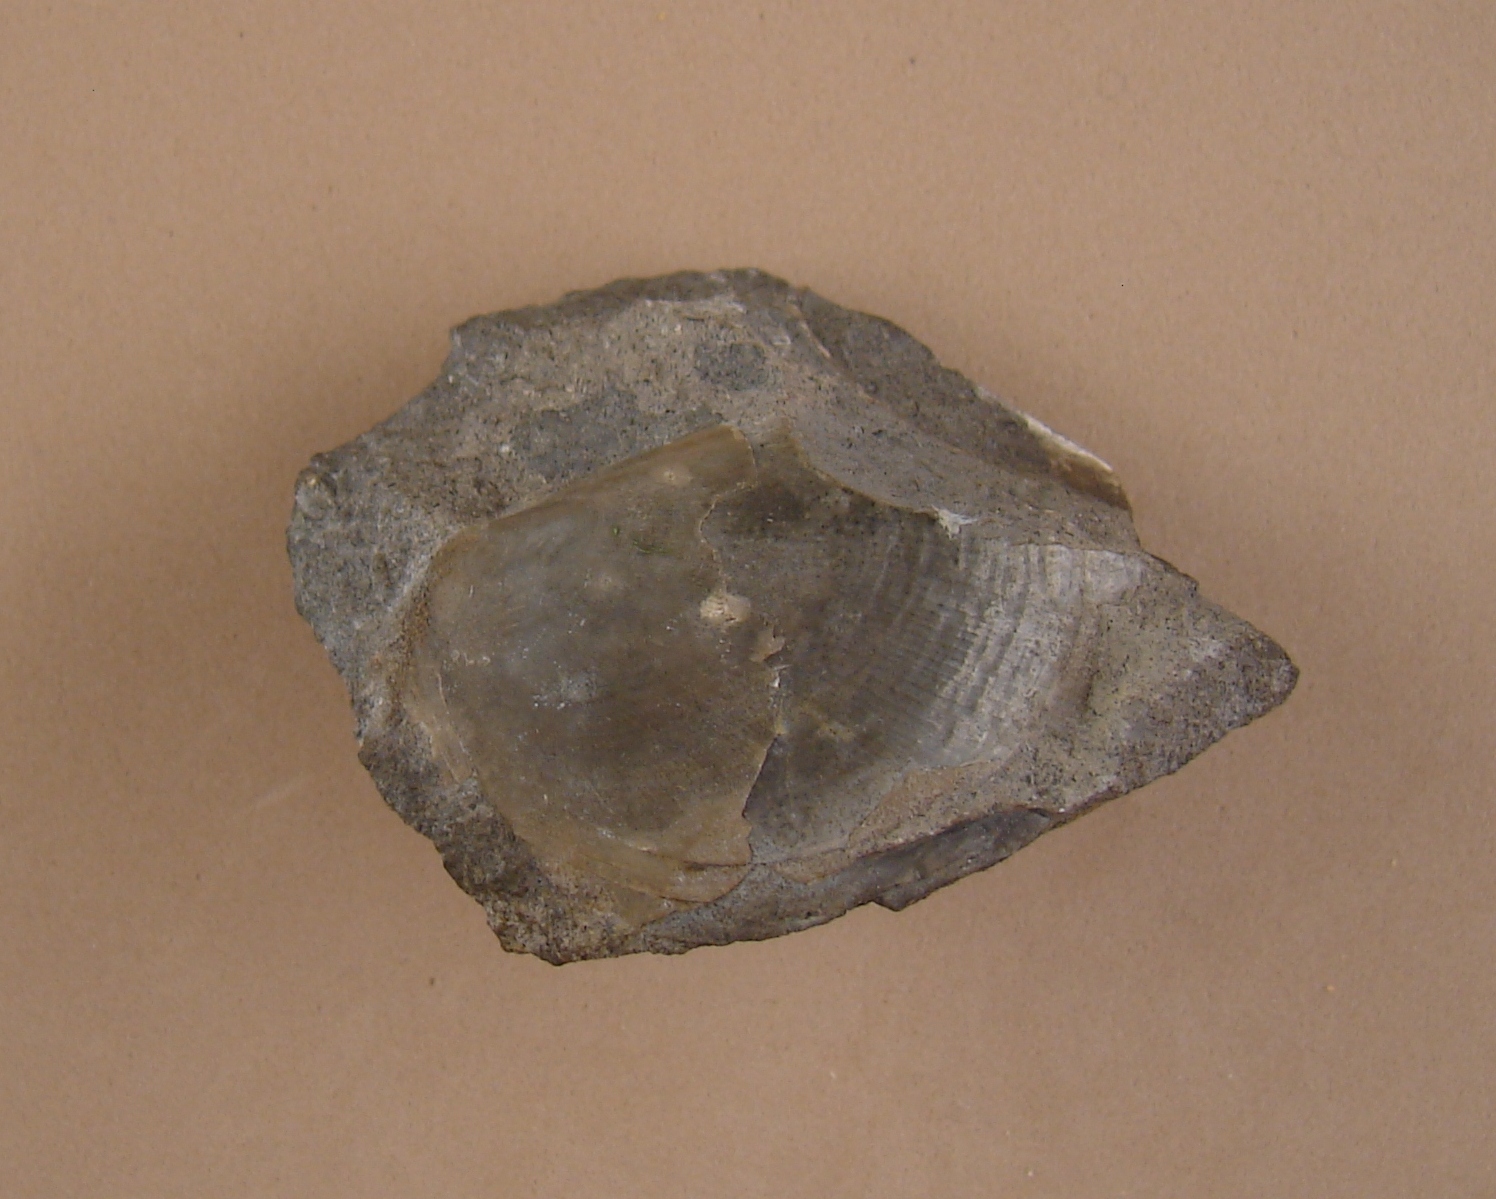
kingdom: Animalia
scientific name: Animalia
